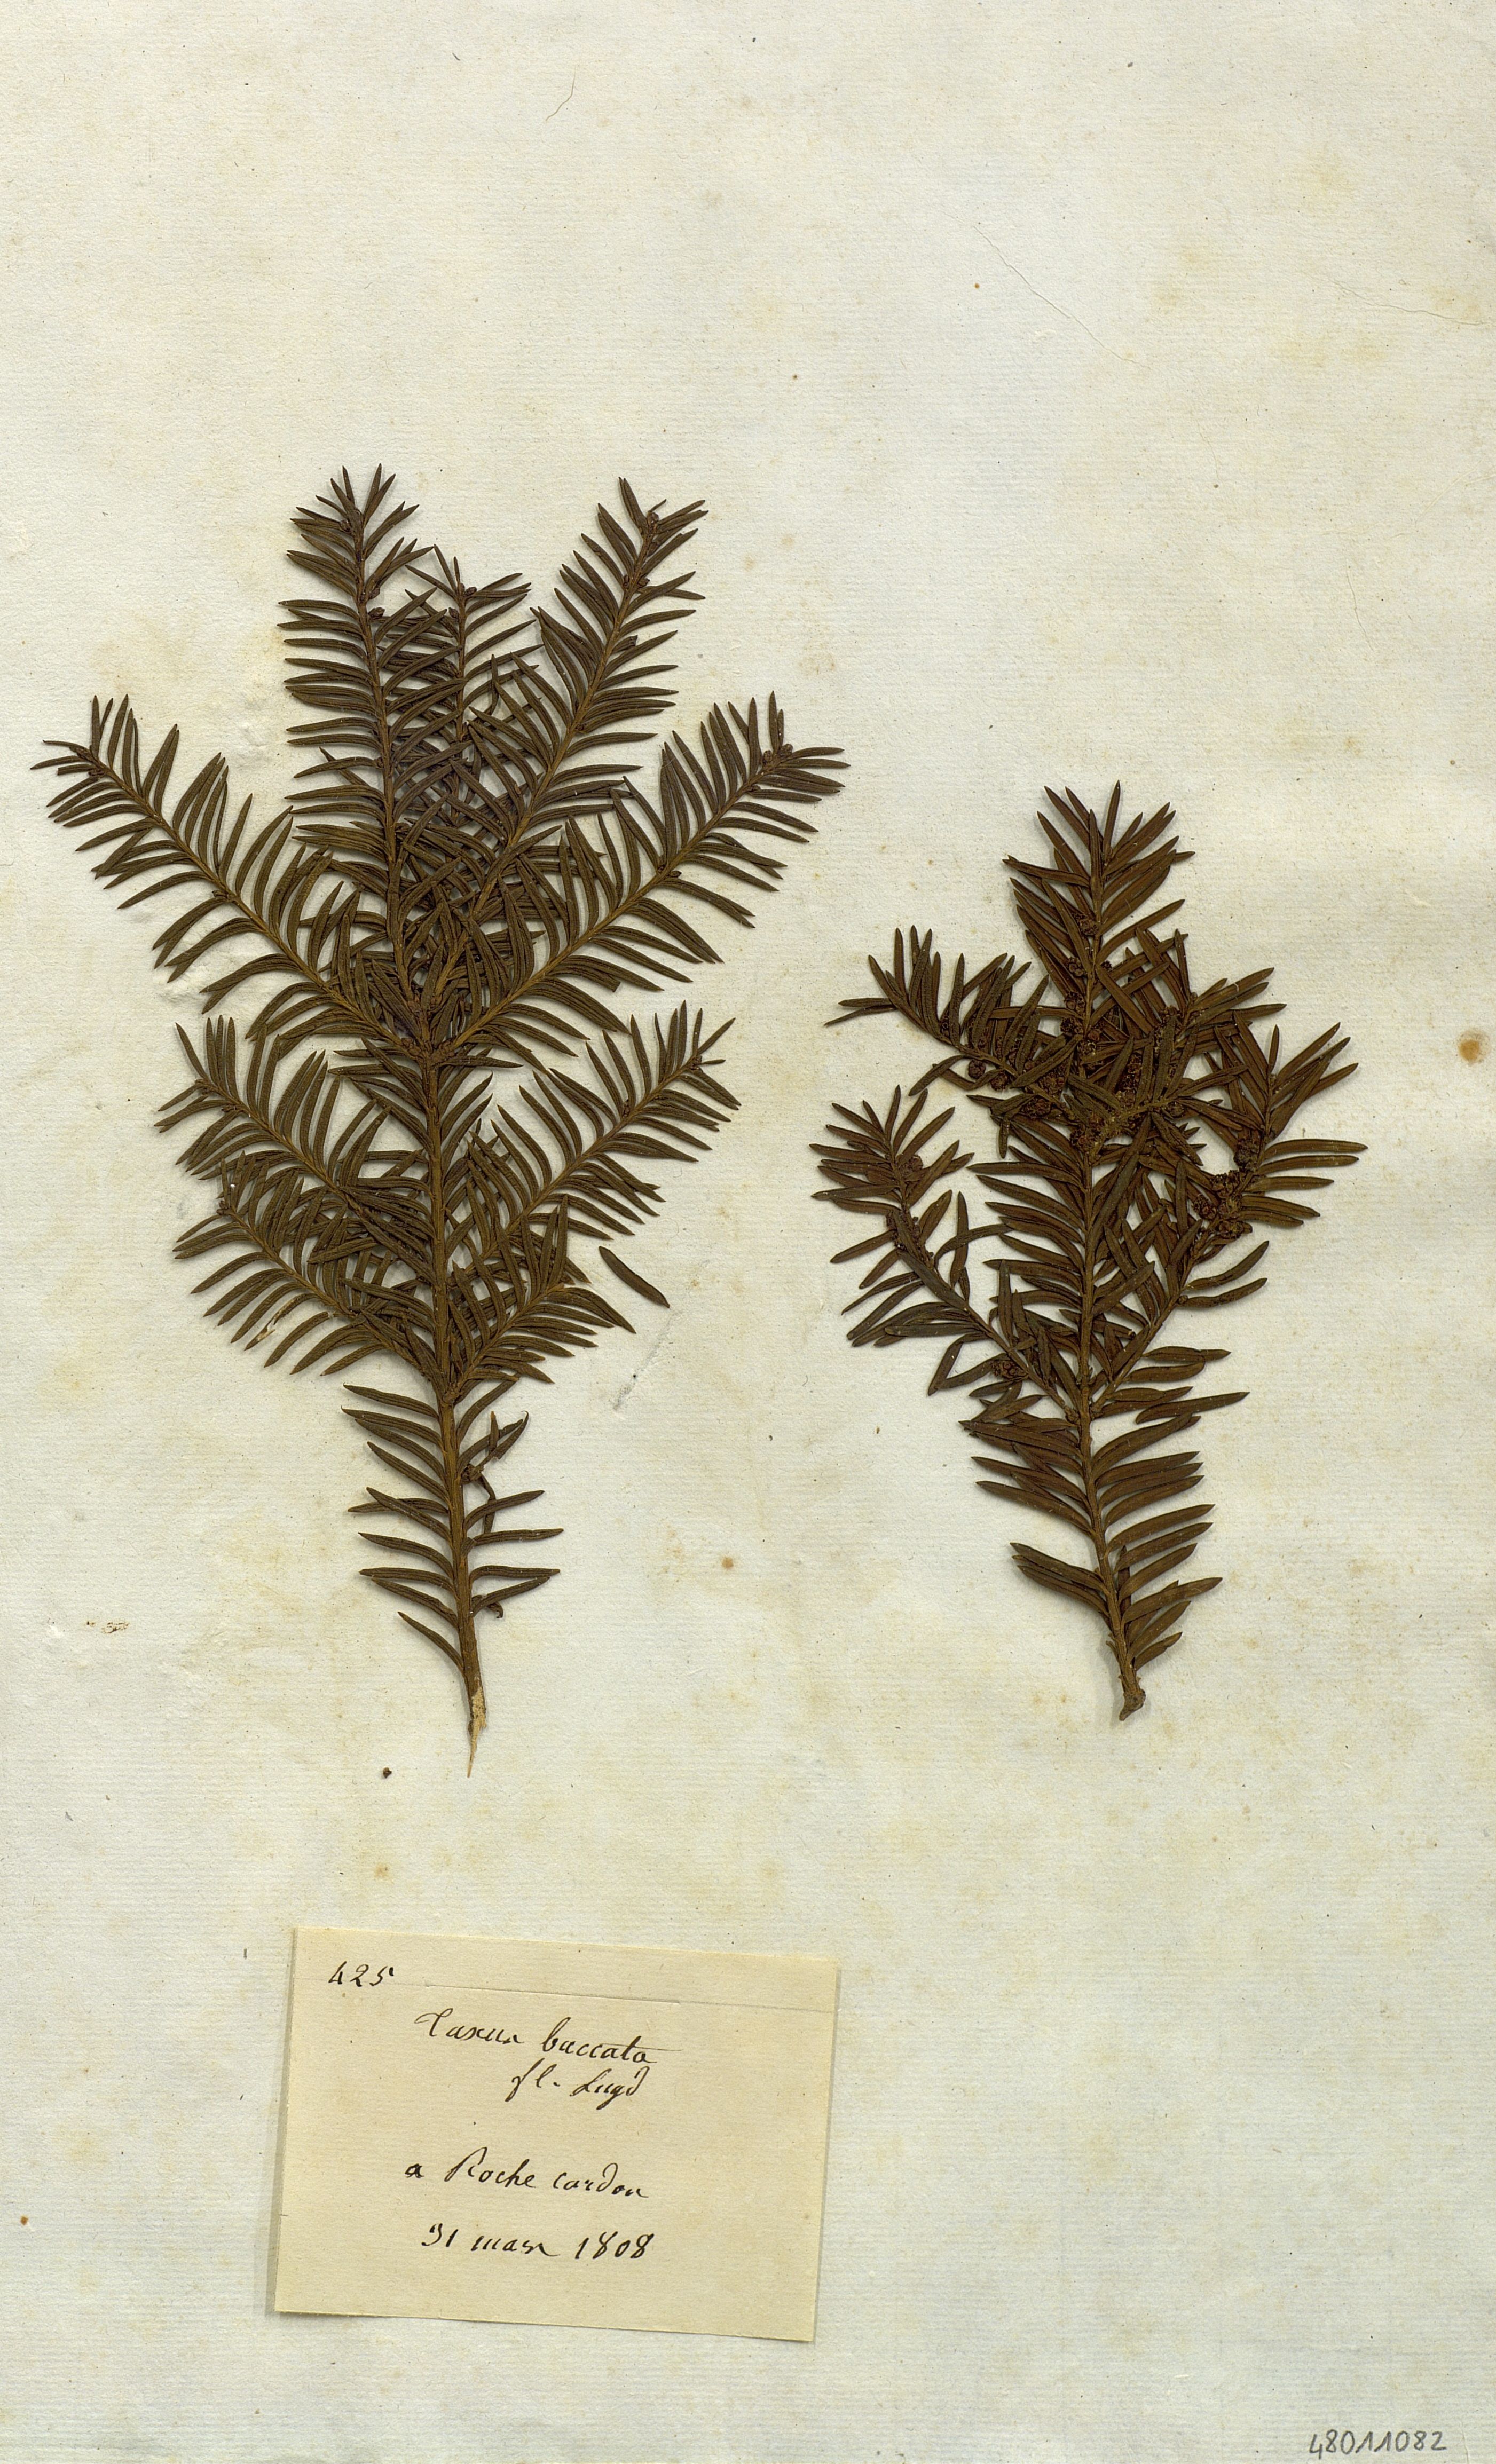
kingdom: Plantae
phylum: Tracheophyta
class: Pinopsida
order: Pinales
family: Taxaceae
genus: Taxus
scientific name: Taxus baccata
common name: Yew
